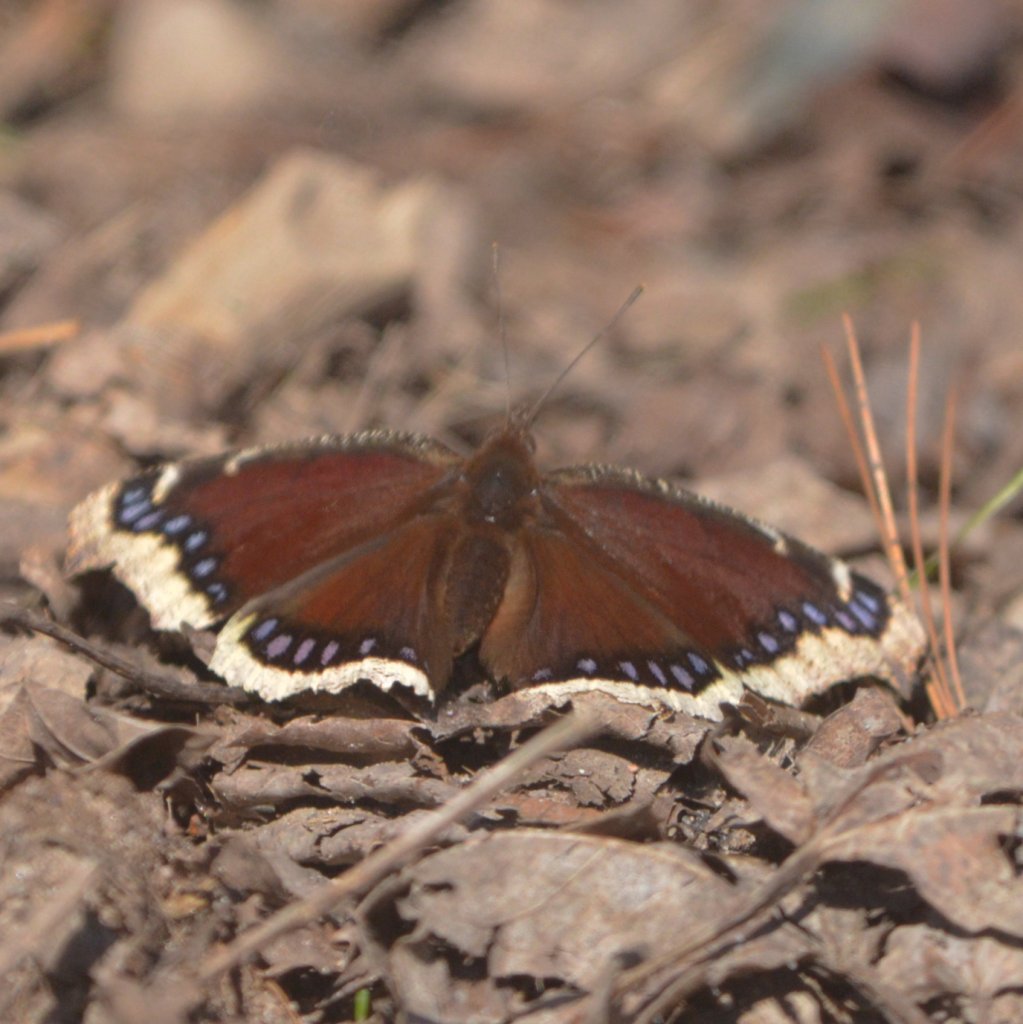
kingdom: Animalia
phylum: Arthropoda
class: Insecta
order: Lepidoptera
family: Nymphalidae
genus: Nymphalis
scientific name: Nymphalis antiopa
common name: Mourning Cloak
